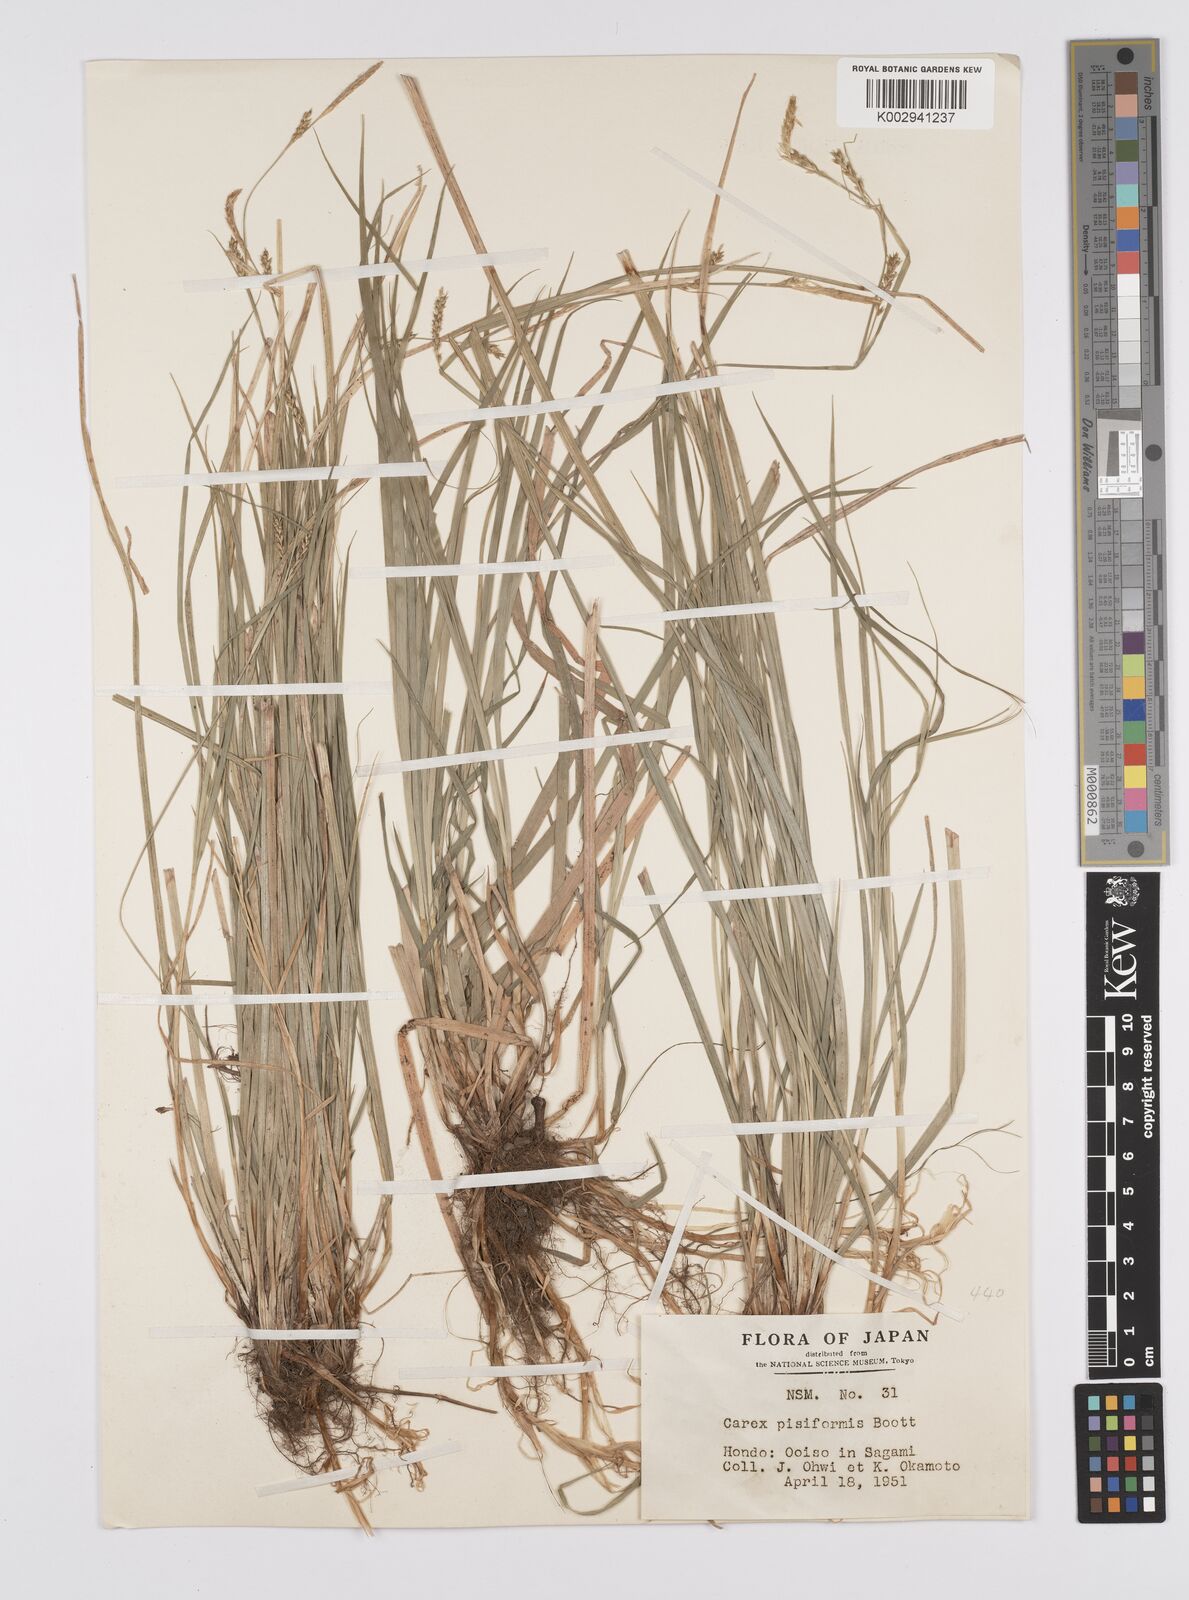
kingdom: Plantae
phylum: Tracheophyta
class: Liliopsida
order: Poales
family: Cyperaceae
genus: Carex
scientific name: Carex pisiformis
